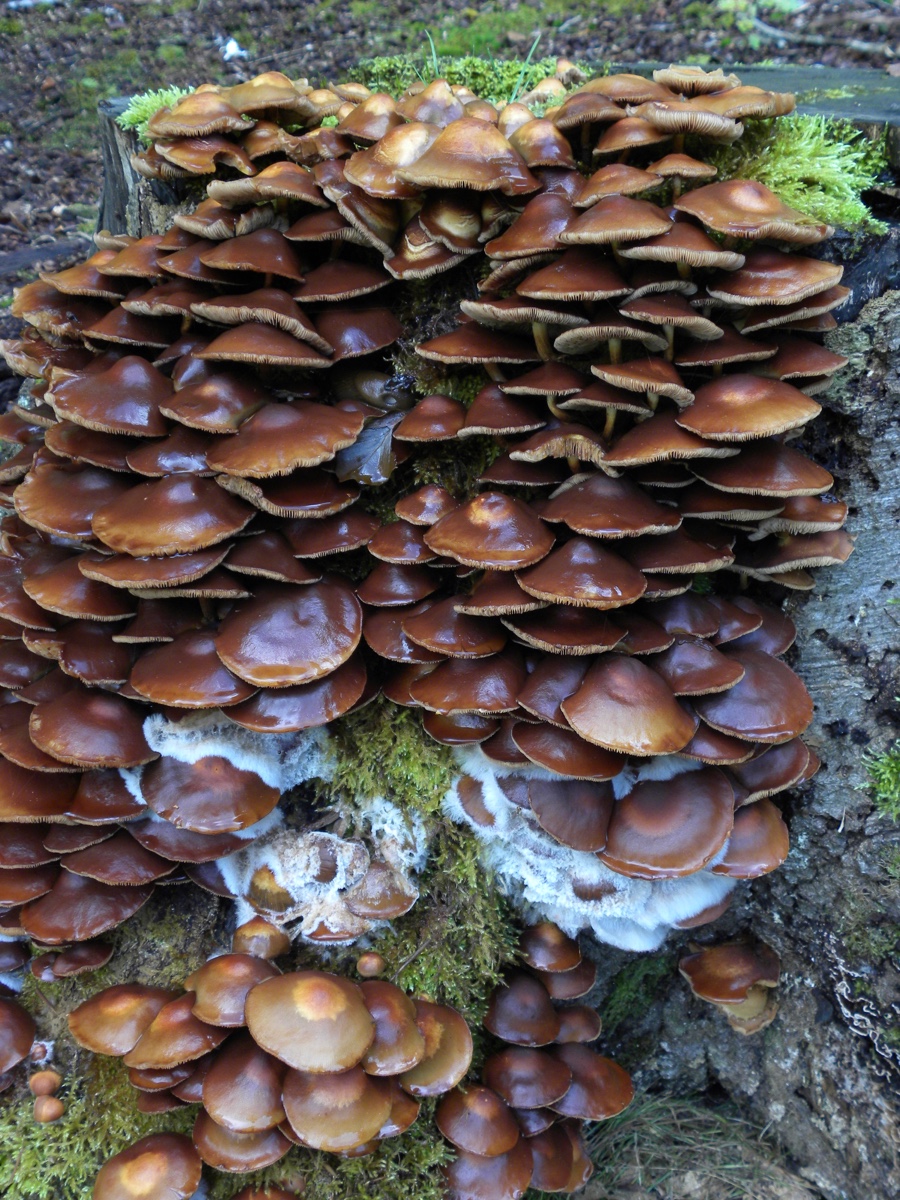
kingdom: Fungi
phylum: Basidiomycota
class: Agaricomycetes
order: Agaricales
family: Strophariaceae
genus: Kuehneromyces
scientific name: Kuehneromyces mutabilis
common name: foranderlig skælhat
